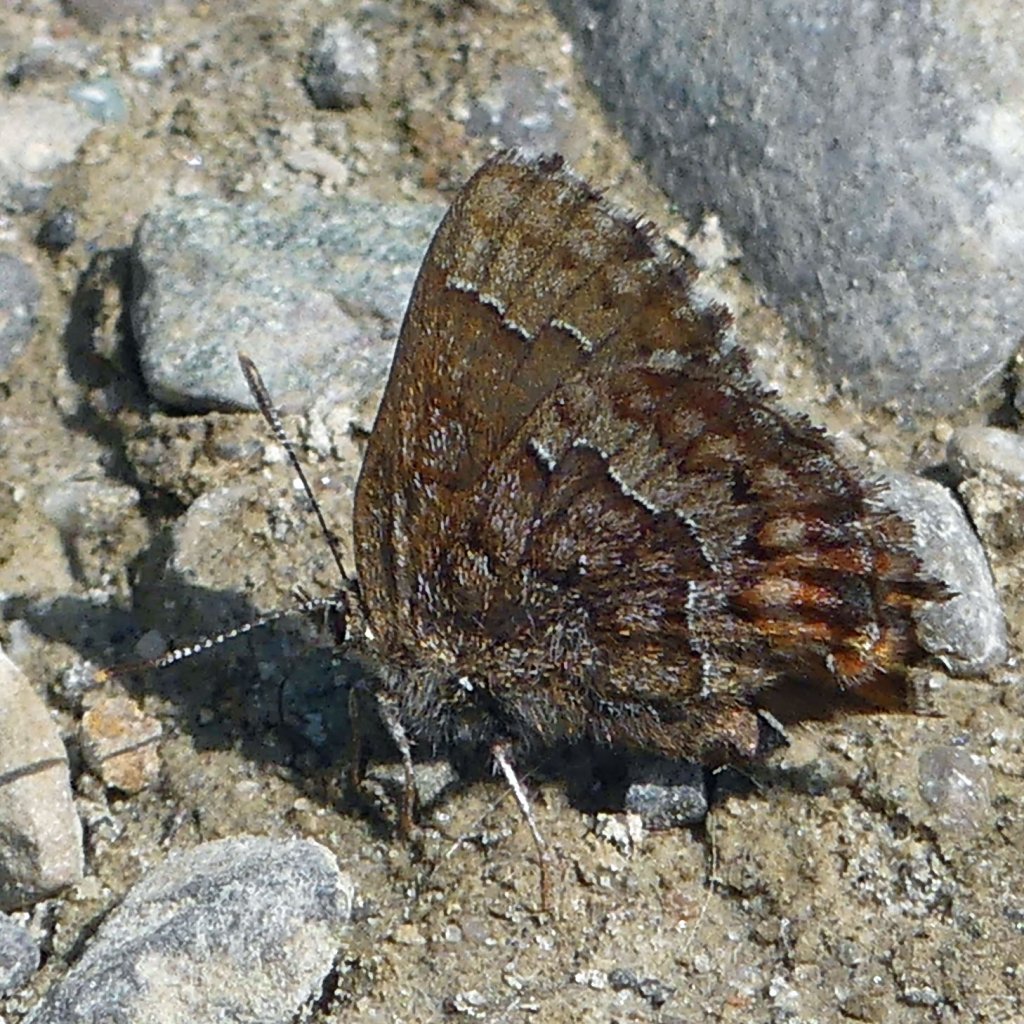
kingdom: Animalia
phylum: Arthropoda
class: Insecta
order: Lepidoptera
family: Lycaenidae
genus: Incisalia
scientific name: Incisalia niphon
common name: Eastern Pine Elfin
